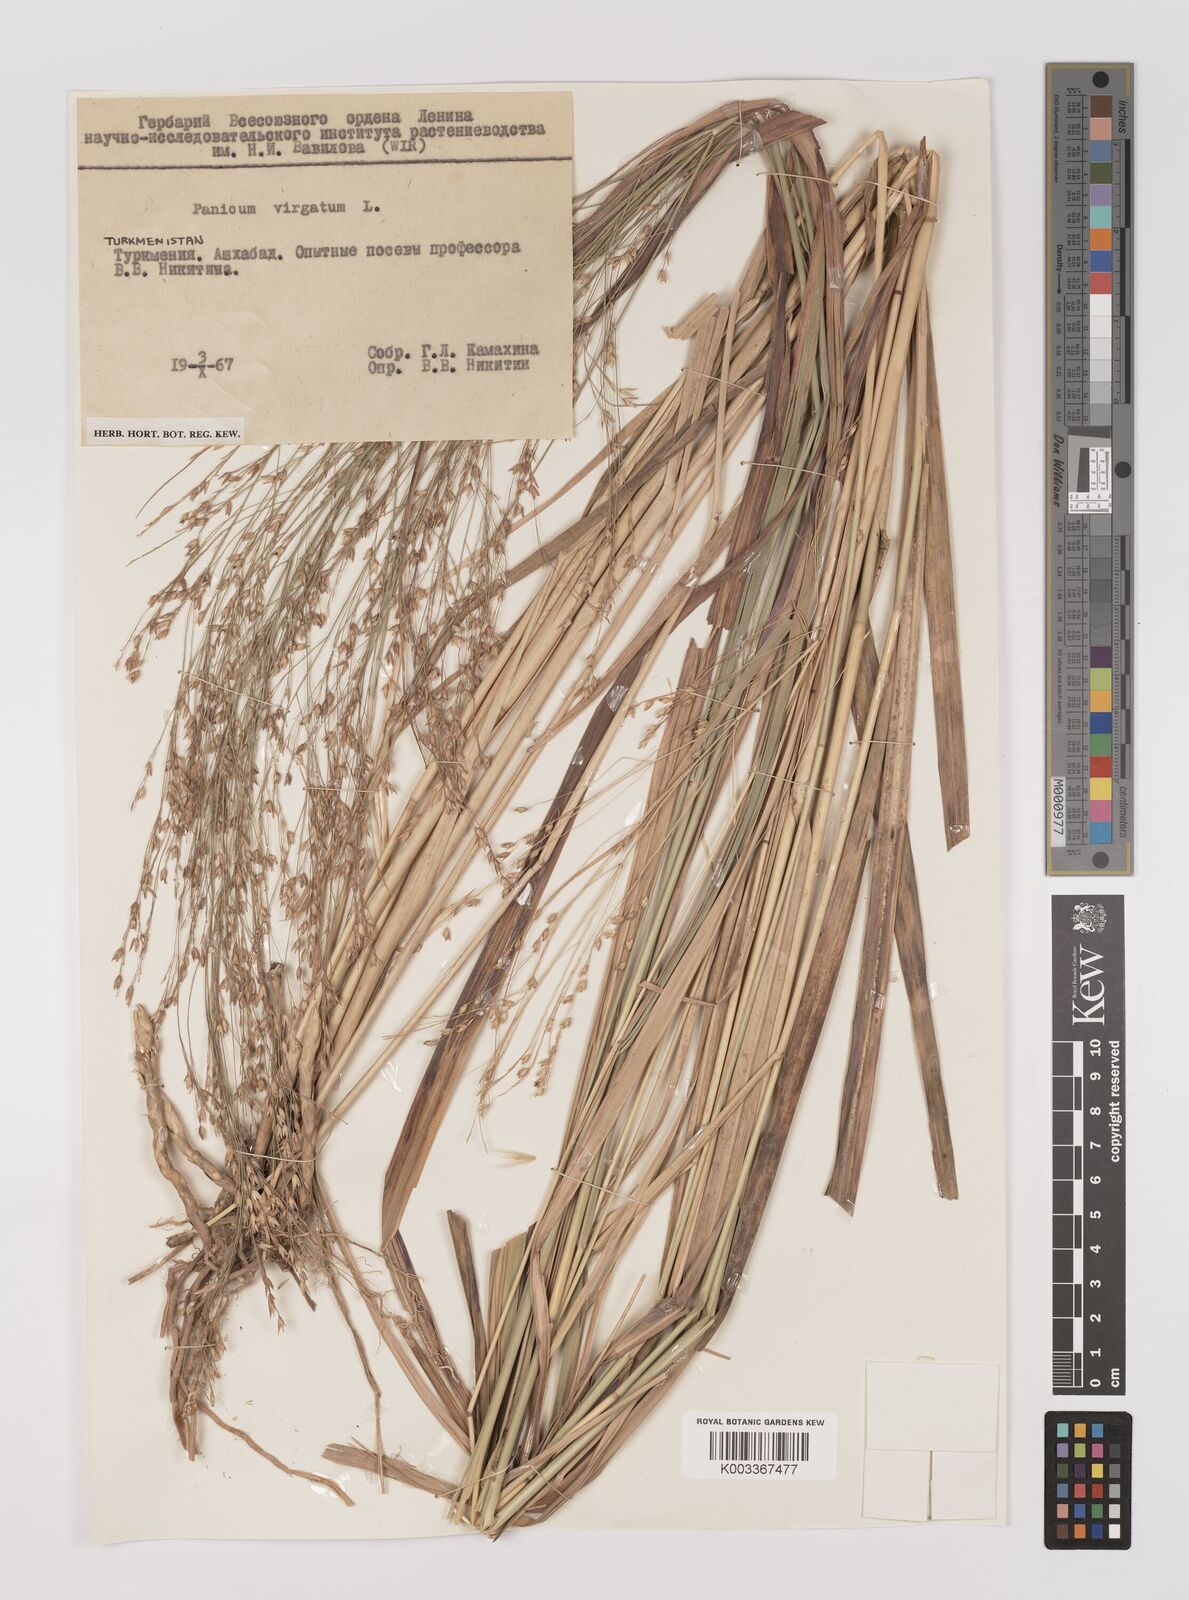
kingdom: Plantae
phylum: Tracheophyta
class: Liliopsida
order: Poales
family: Poaceae
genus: Panicum
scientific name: Panicum virgatum
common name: Switchgrass
